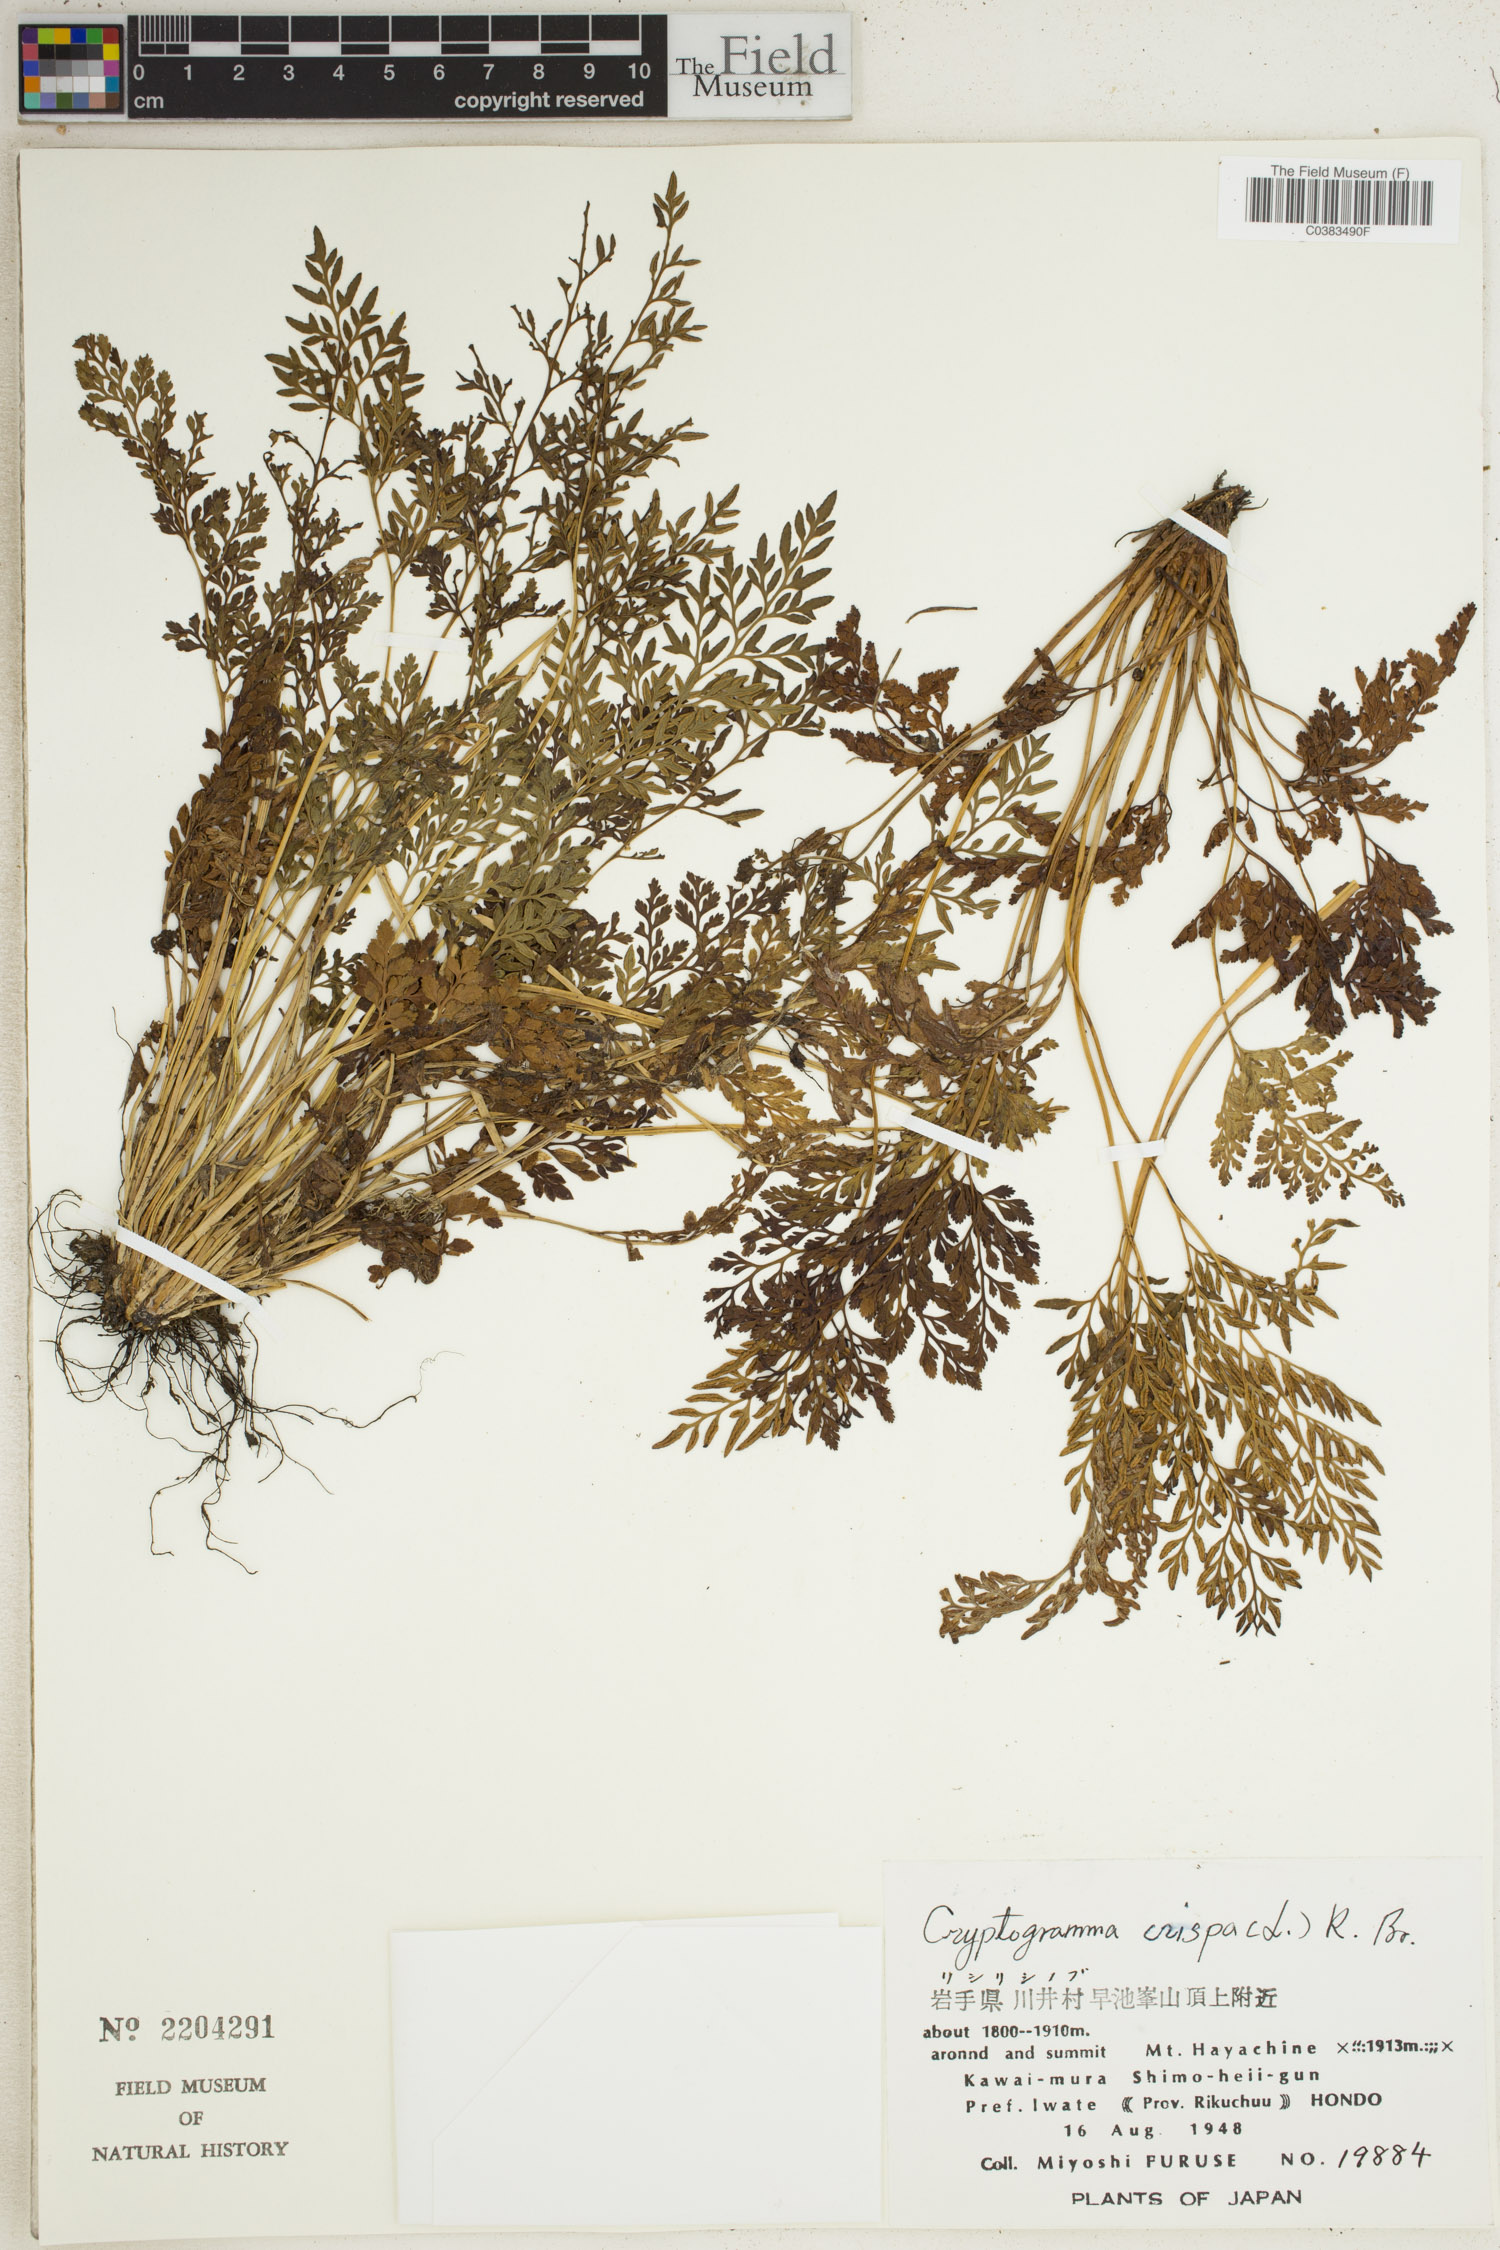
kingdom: Plantae
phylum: Tracheophyta
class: Polypodiopsida
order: Polypodiales
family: Pteridaceae
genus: Cryptogramma
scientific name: Cryptogramma crispa
